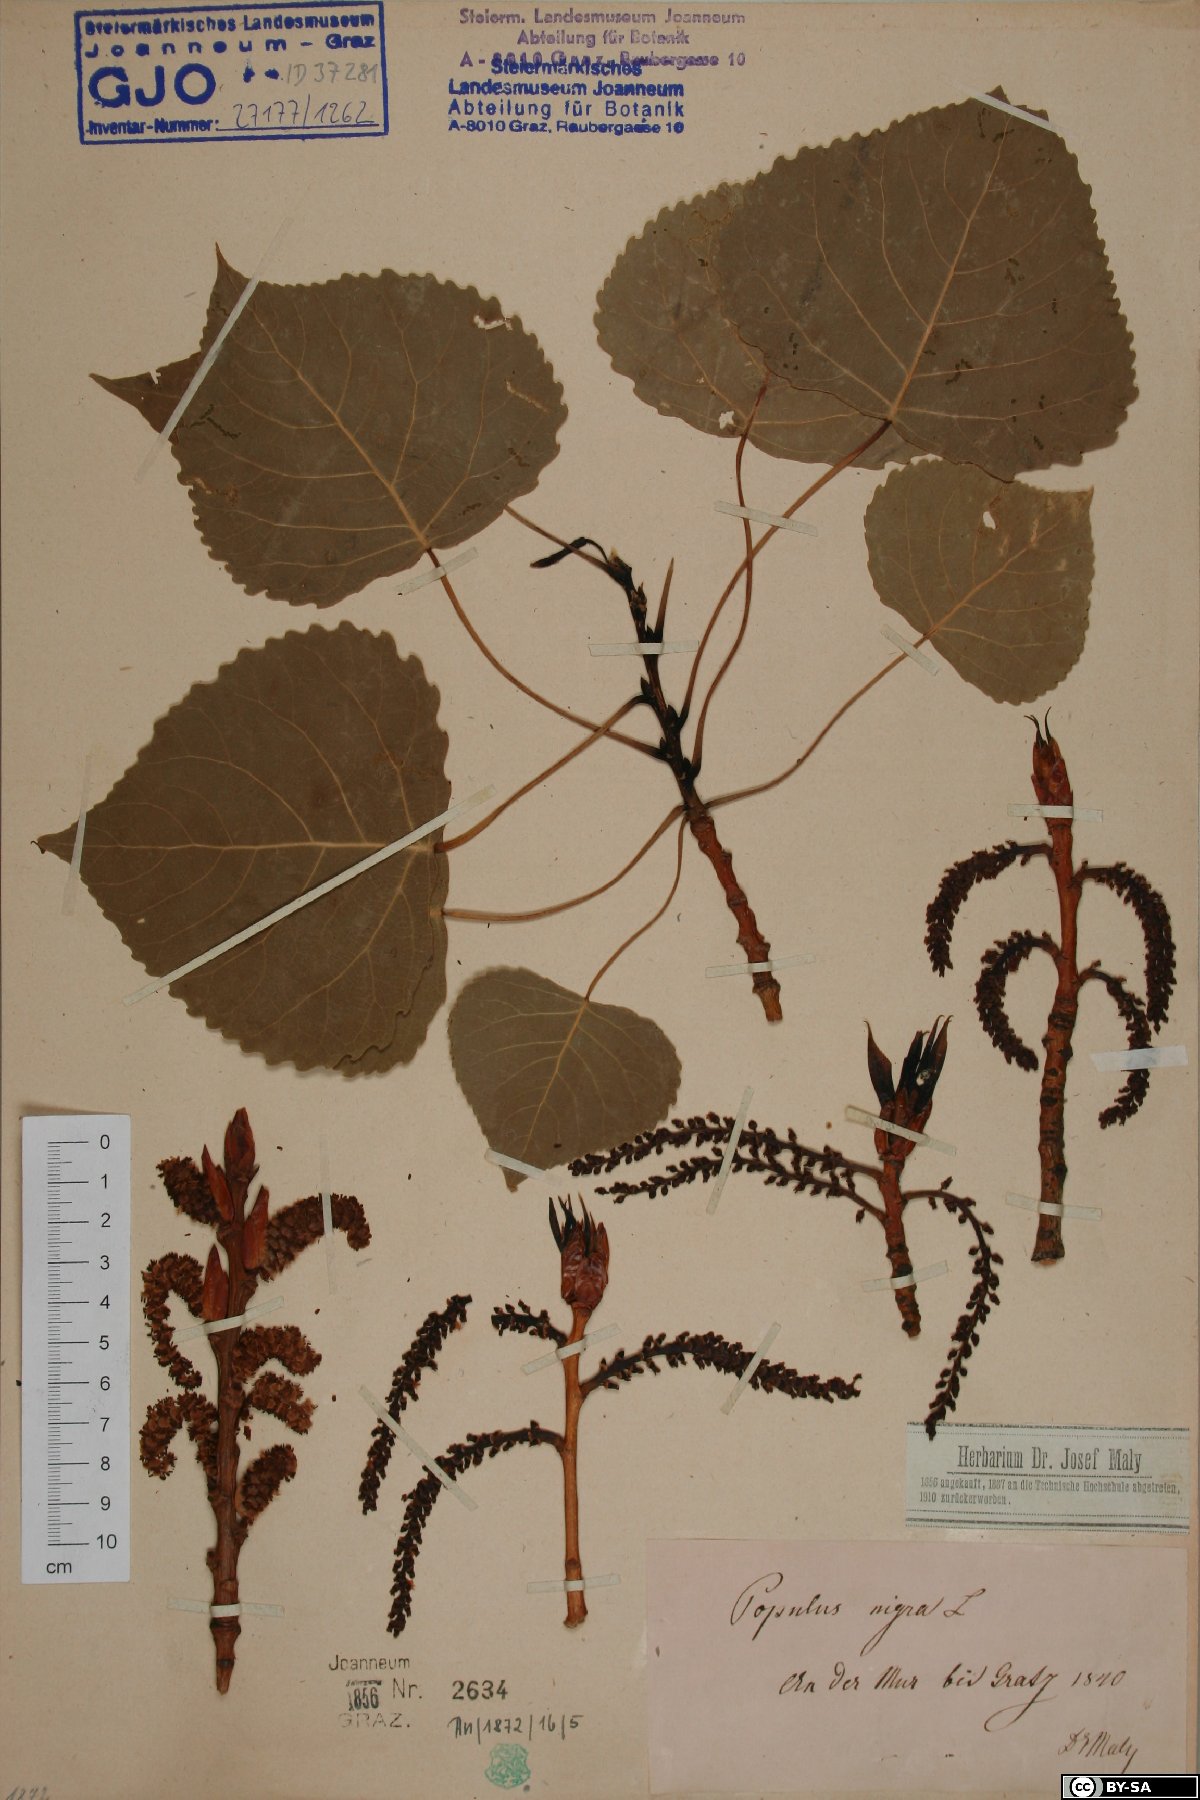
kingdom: Plantae
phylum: Tracheophyta
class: Magnoliopsida
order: Malpighiales
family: Salicaceae
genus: Populus
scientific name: Populus nigra
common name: Black poplar
